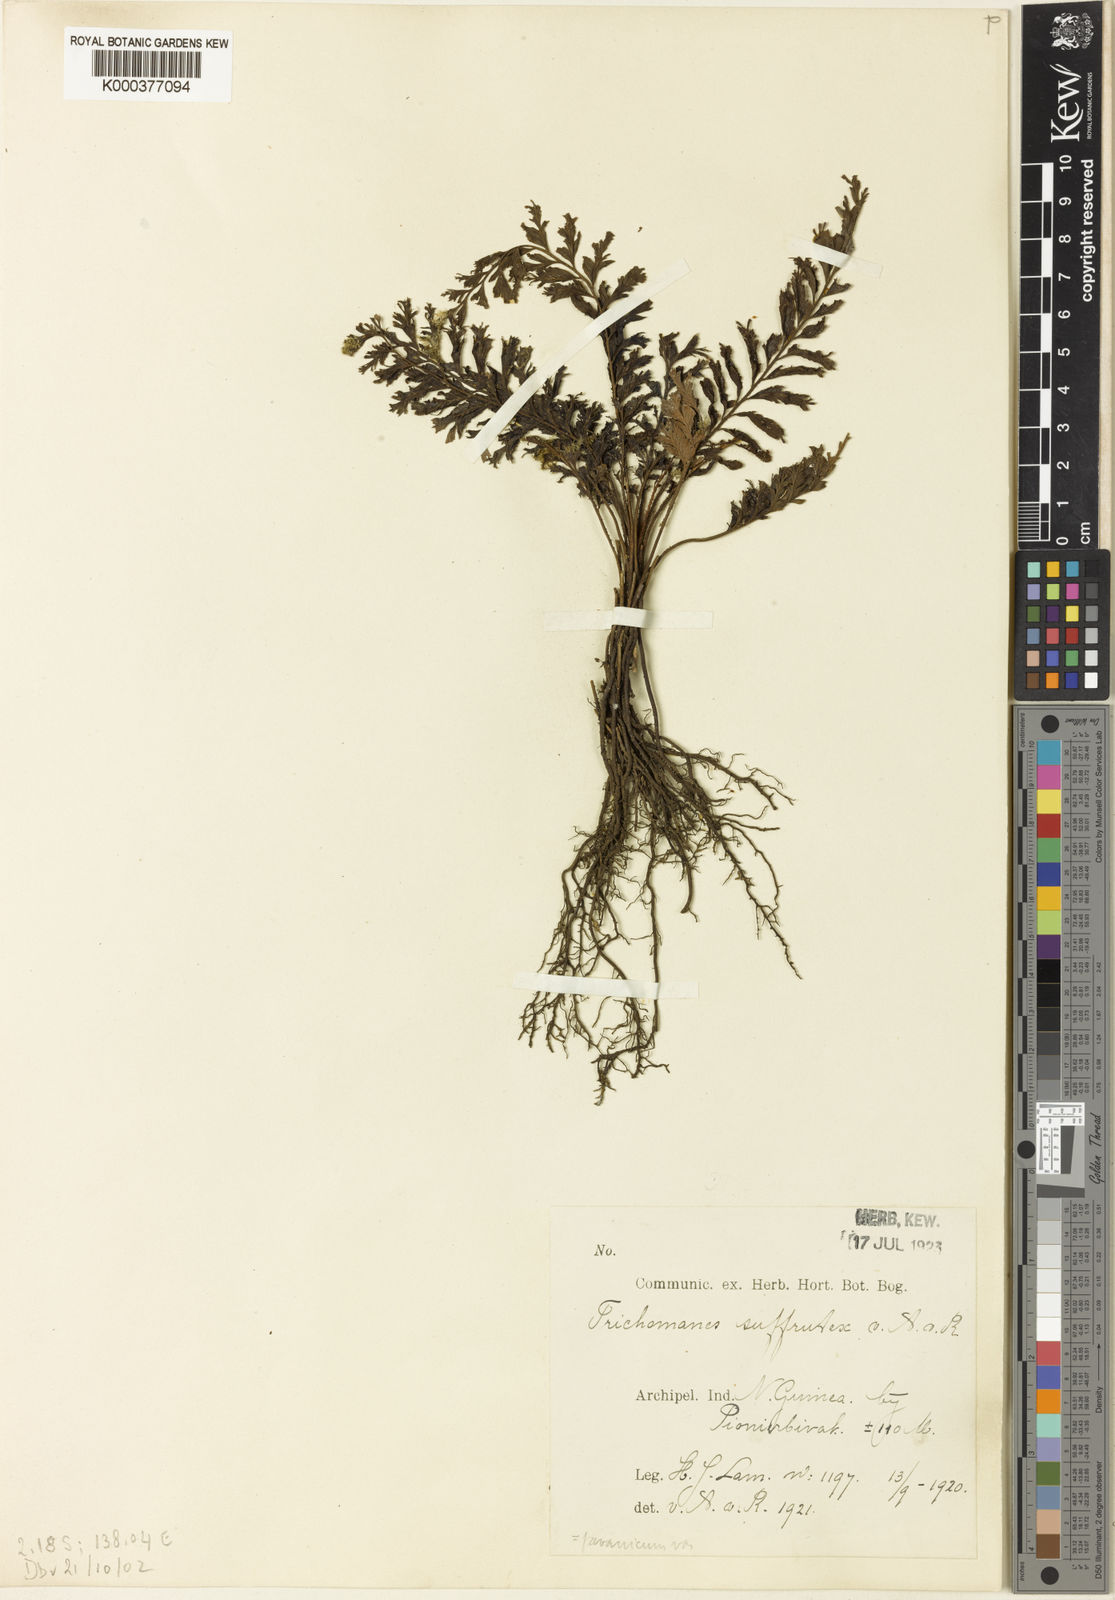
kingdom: Plantae
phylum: Tracheophyta
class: Polypodiopsida
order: Hymenophyllales
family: Hymenophyllaceae
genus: Cephalomanes
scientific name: Cephalomanes javanicum
